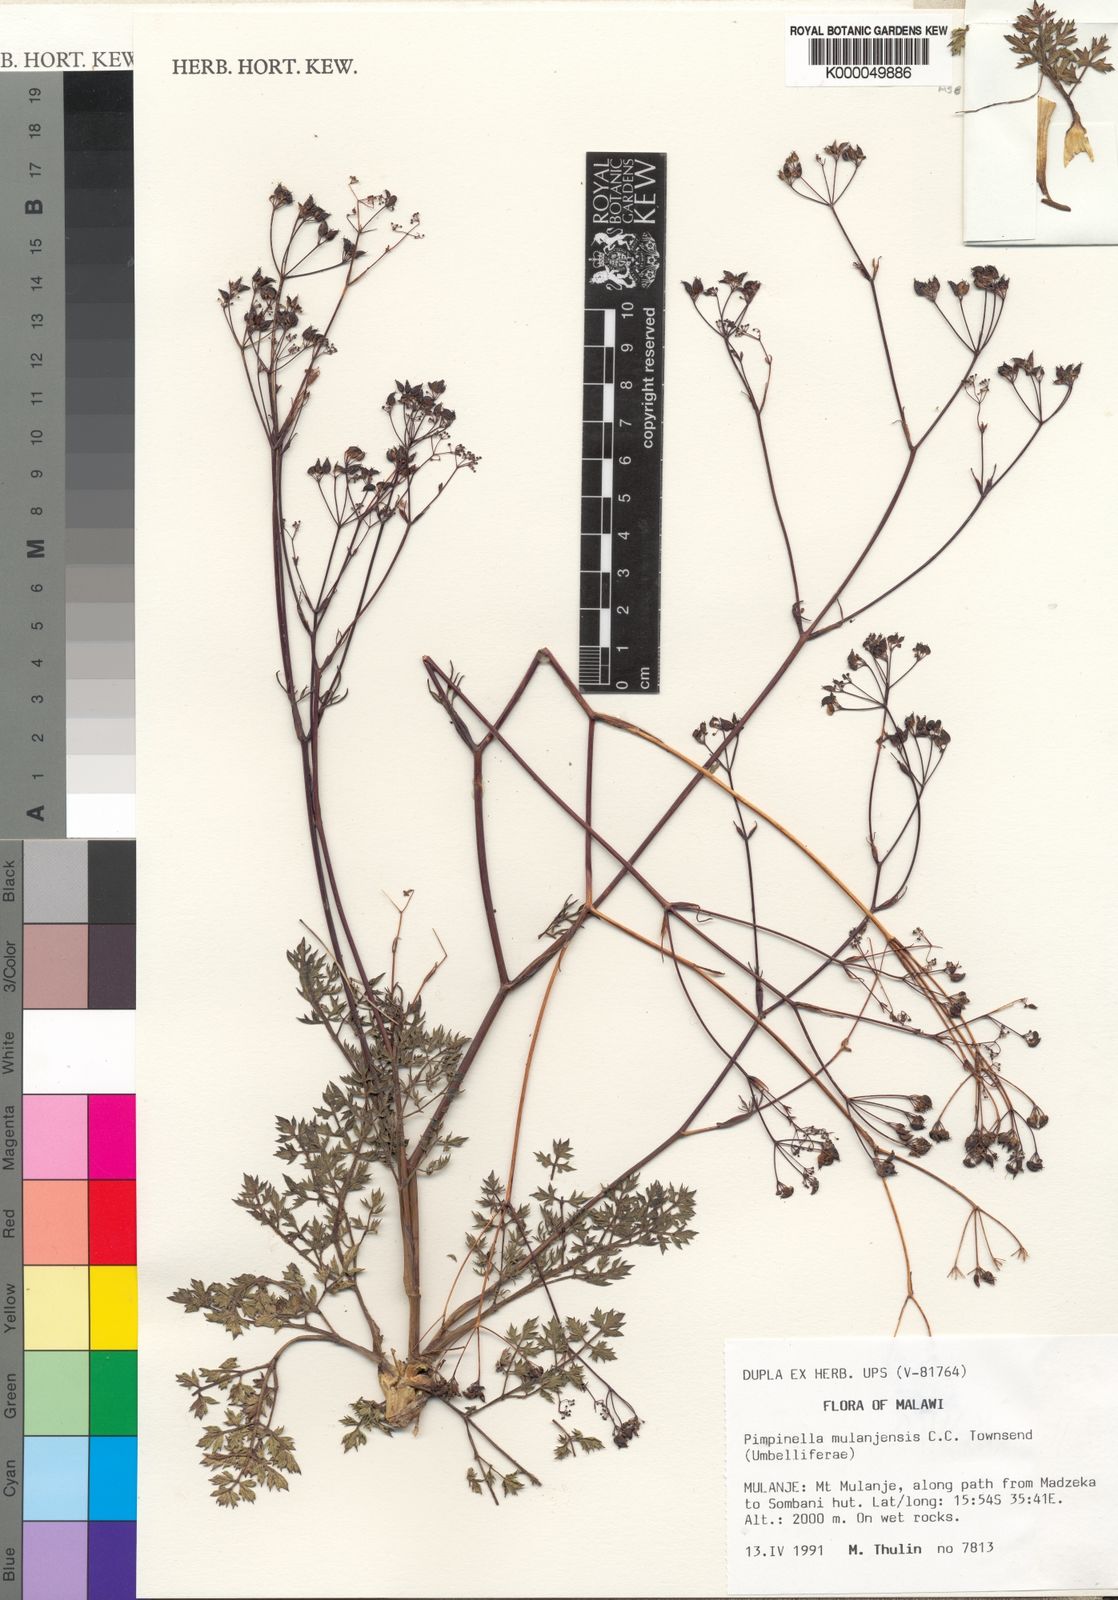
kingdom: Plantae
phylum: Tracheophyta
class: Magnoliopsida
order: Apiales
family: Apiaceae
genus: Pimpinella
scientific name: Pimpinella mulanjensis
